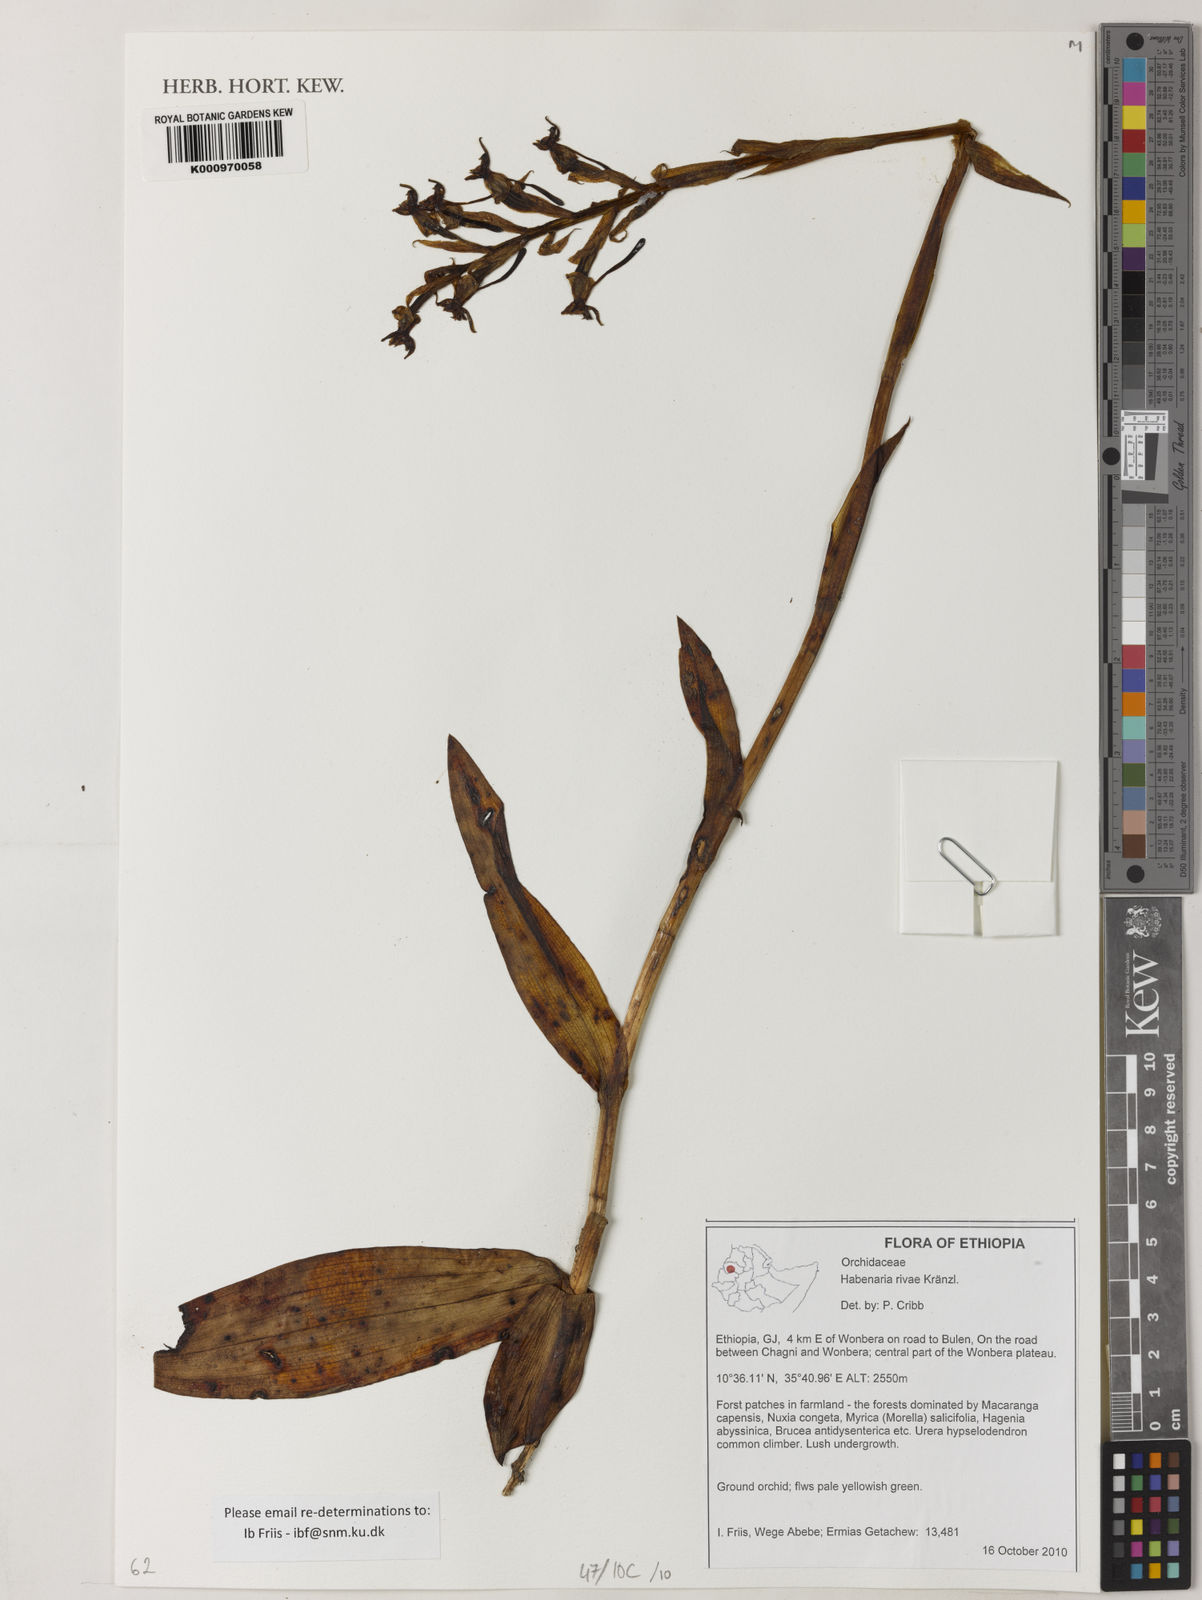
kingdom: Plantae
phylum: Tracheophyta
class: Liliopsida
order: Asparagales
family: Orchidaceae
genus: Habenaria
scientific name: Habenaria rivae
